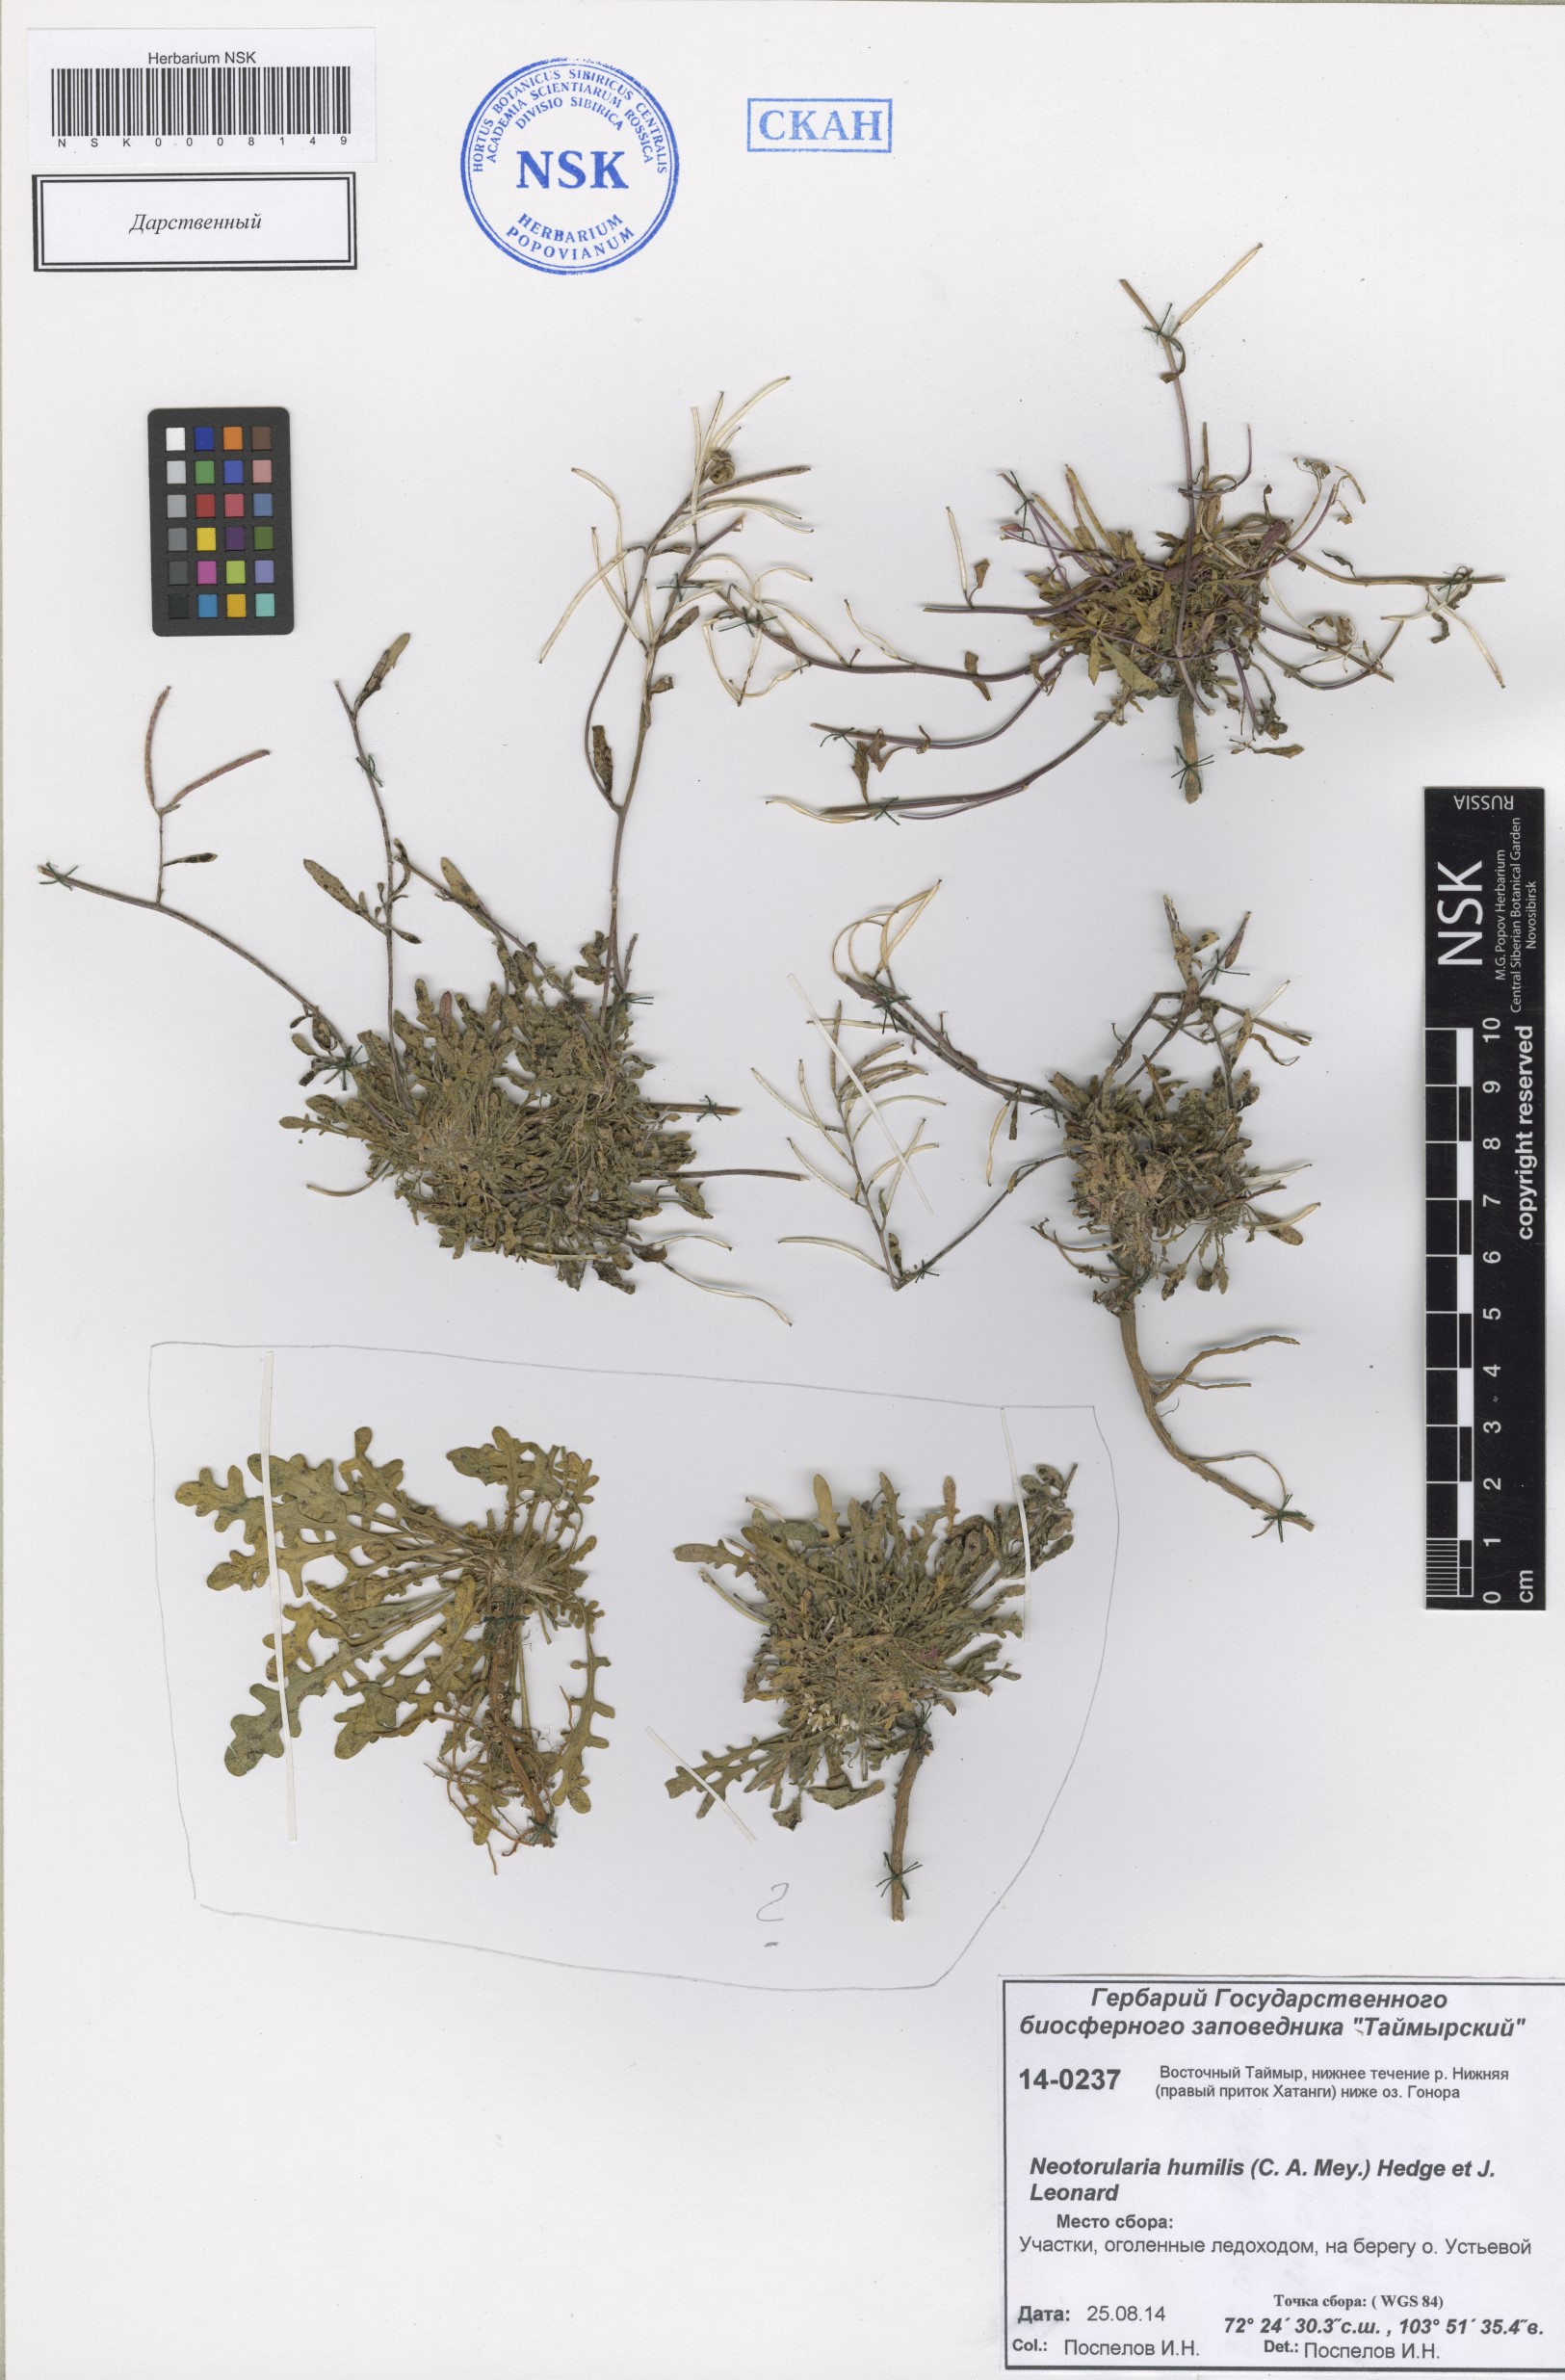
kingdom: Plantae
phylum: Tracheophyta
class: Magnoliopsida
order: Brassicales
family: Brassicaceae
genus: Braya
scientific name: Braya humilis
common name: Alpine northern rockcress
